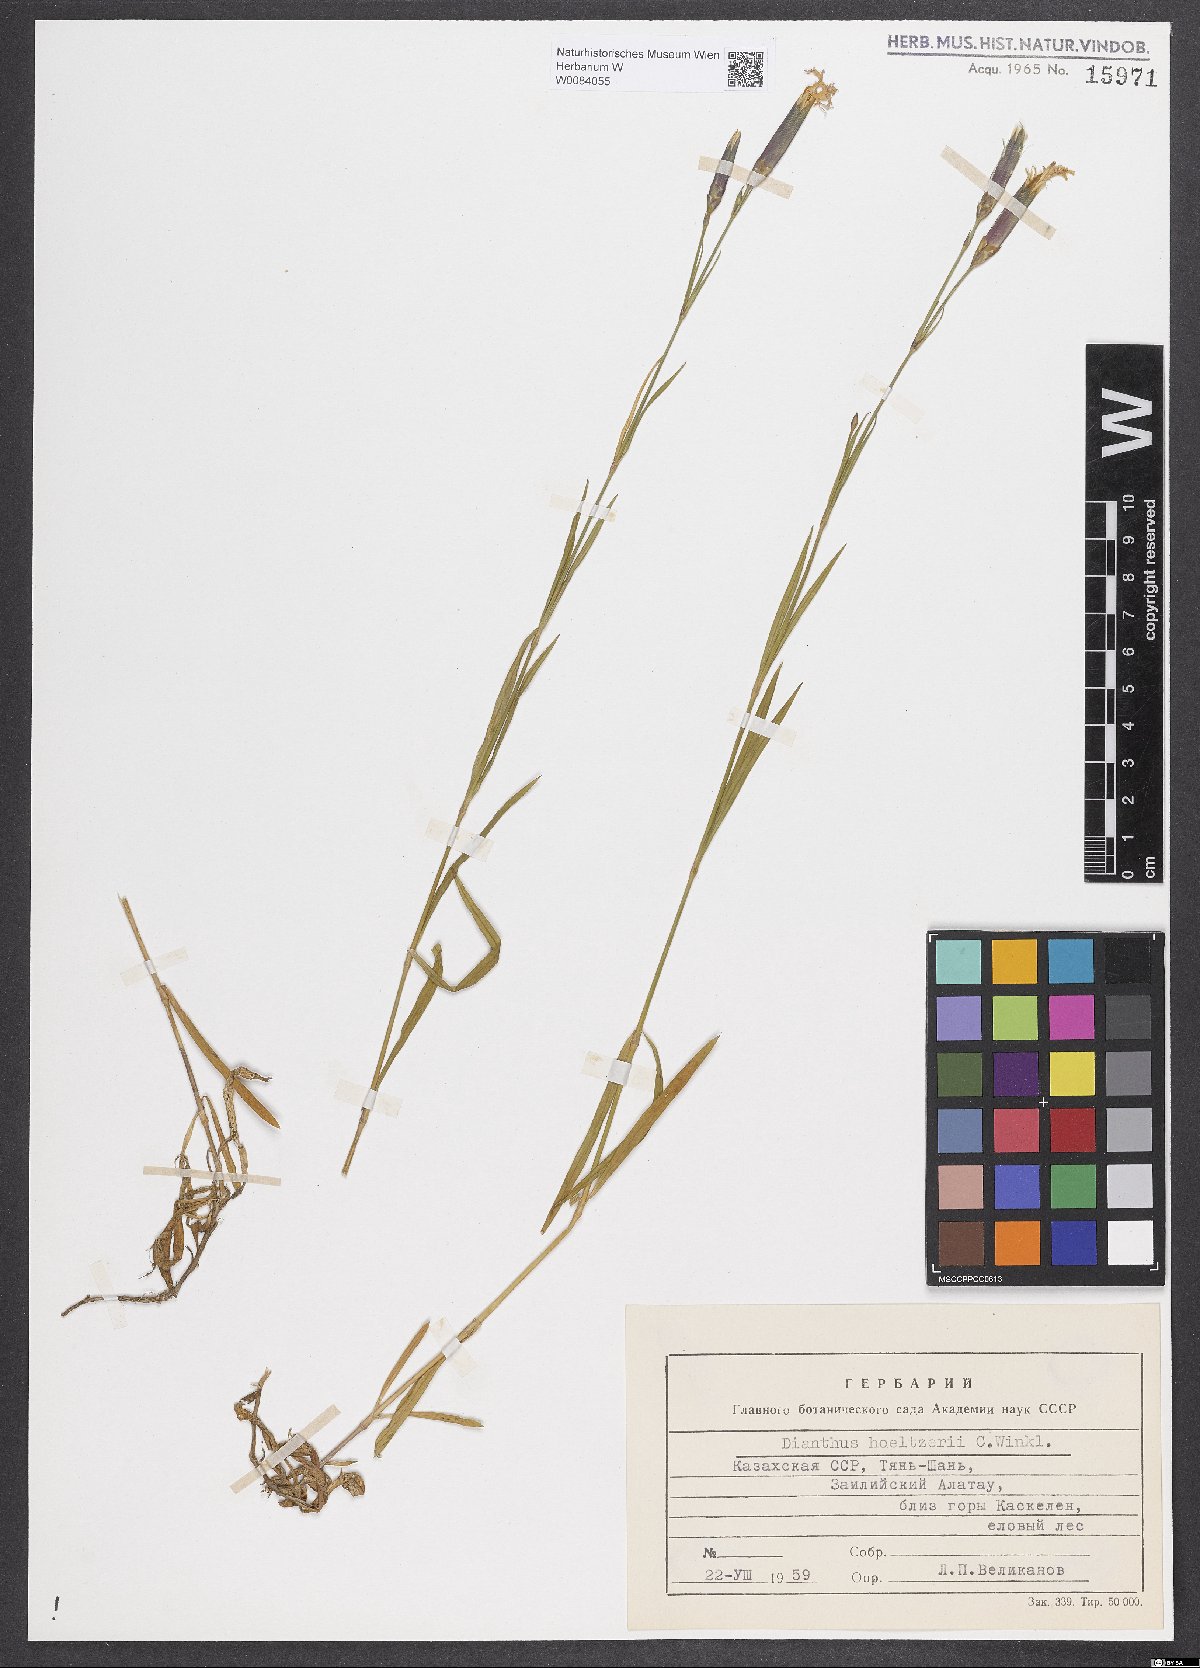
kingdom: Plantae
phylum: Tracheophyta
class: Magnoliopsida
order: Caryophyllales
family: Caryophyllaceae
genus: Dianthus
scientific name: Dianthus hoeltzeri
